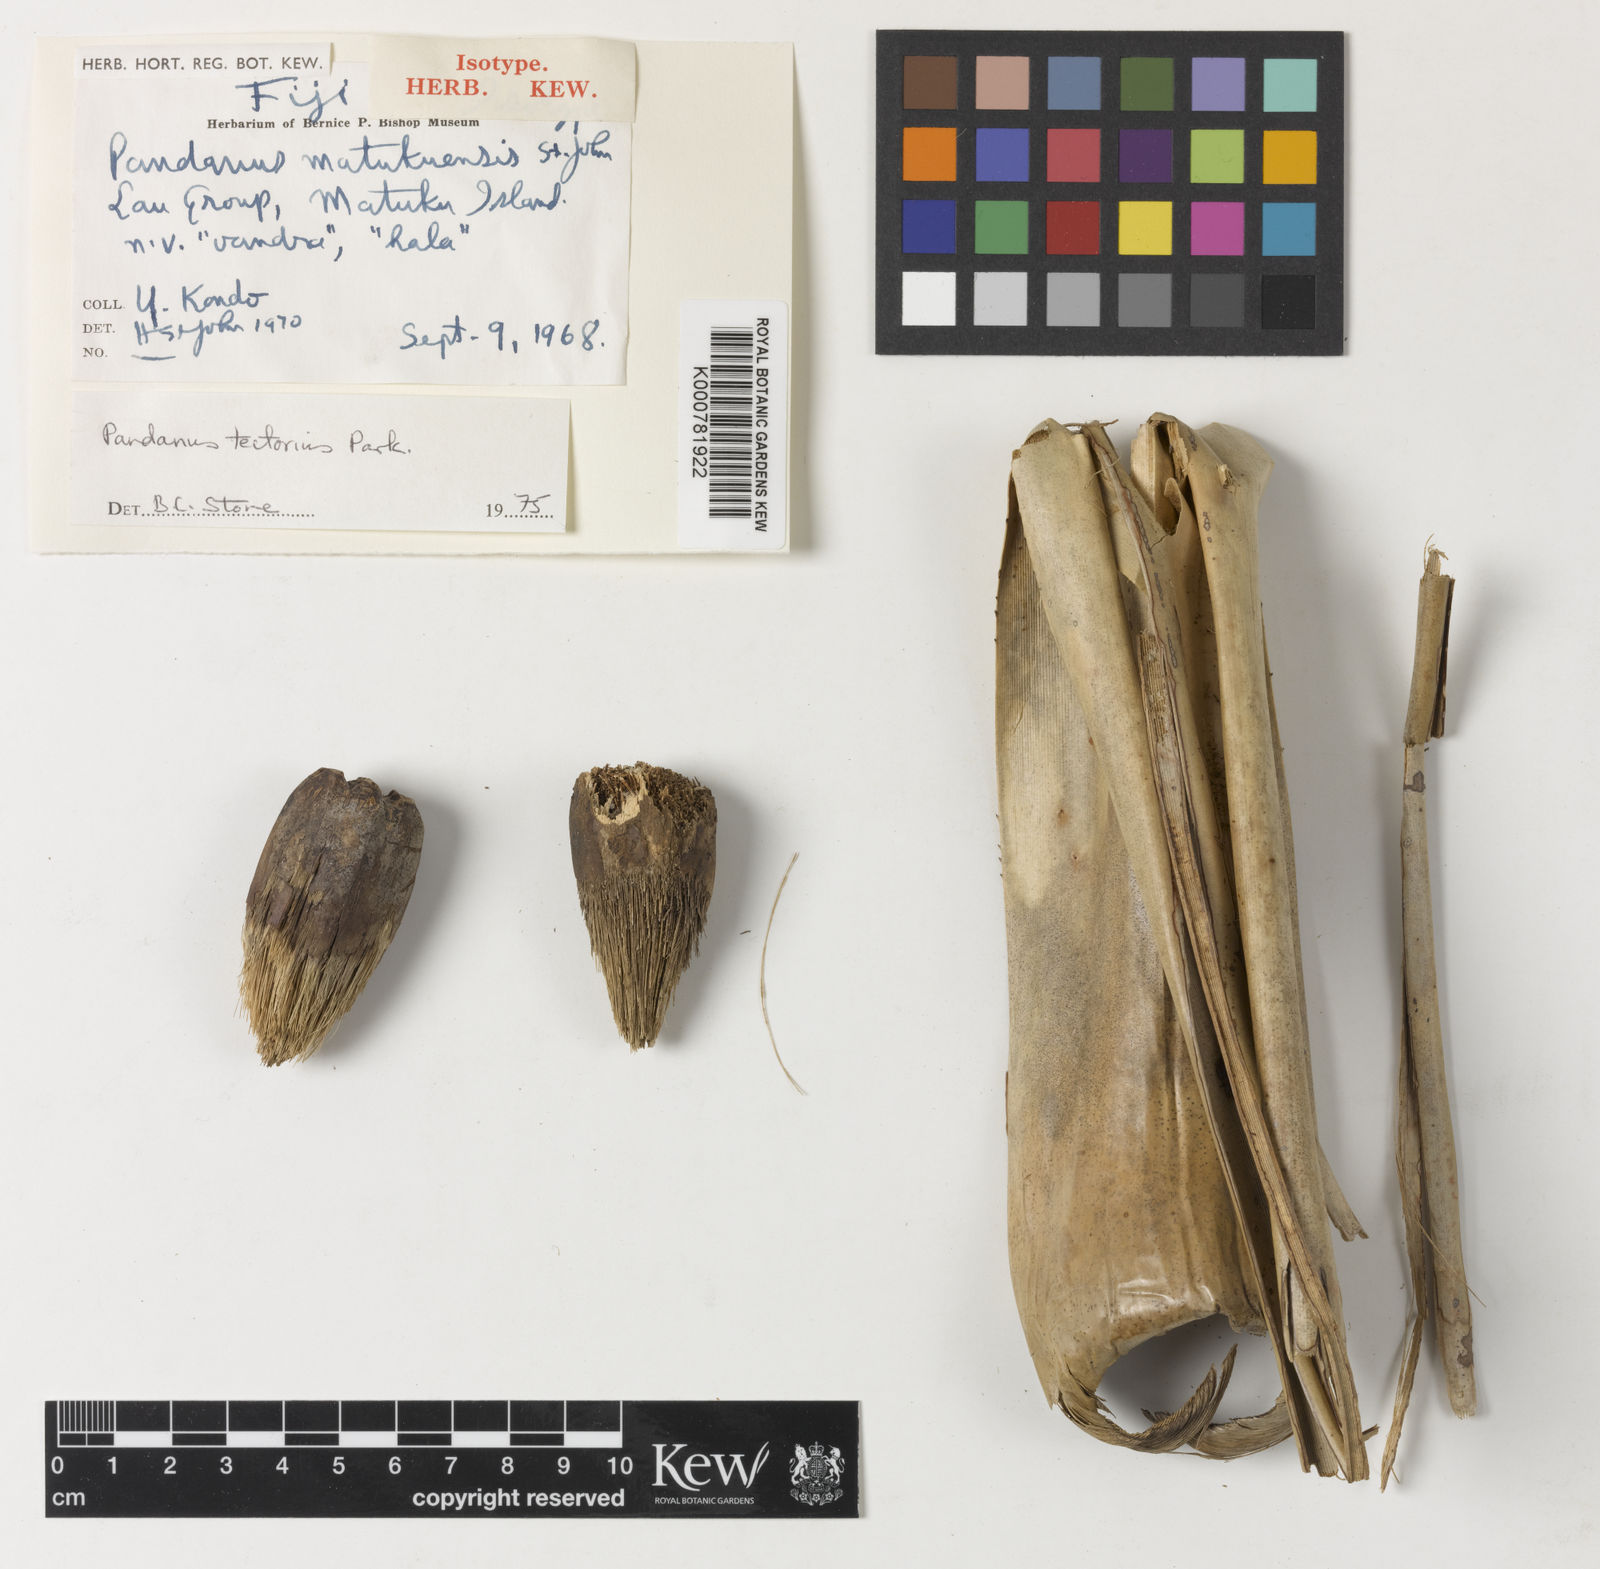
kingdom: Plantae
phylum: Tracheophyta
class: Liliopsida
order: Pandanales
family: Pandanaceae
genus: Pandanus
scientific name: Pandanus
